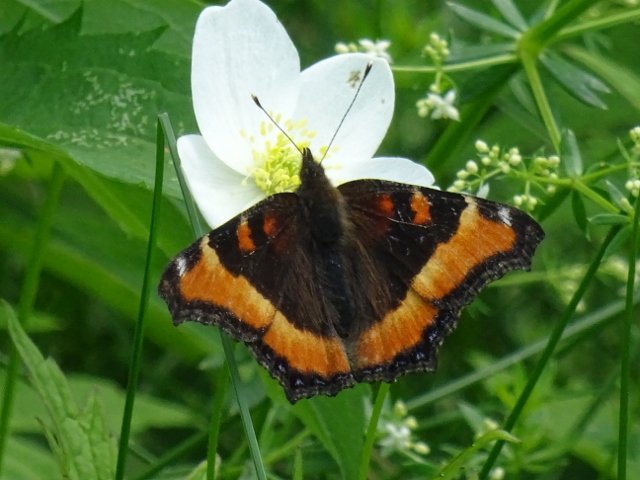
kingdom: Animalia
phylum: Arthropoda
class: Insecta
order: Lepidoptera
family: Nymphalidae
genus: Aglais
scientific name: Aglais milberti
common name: Milbert's Tortoiseshell
